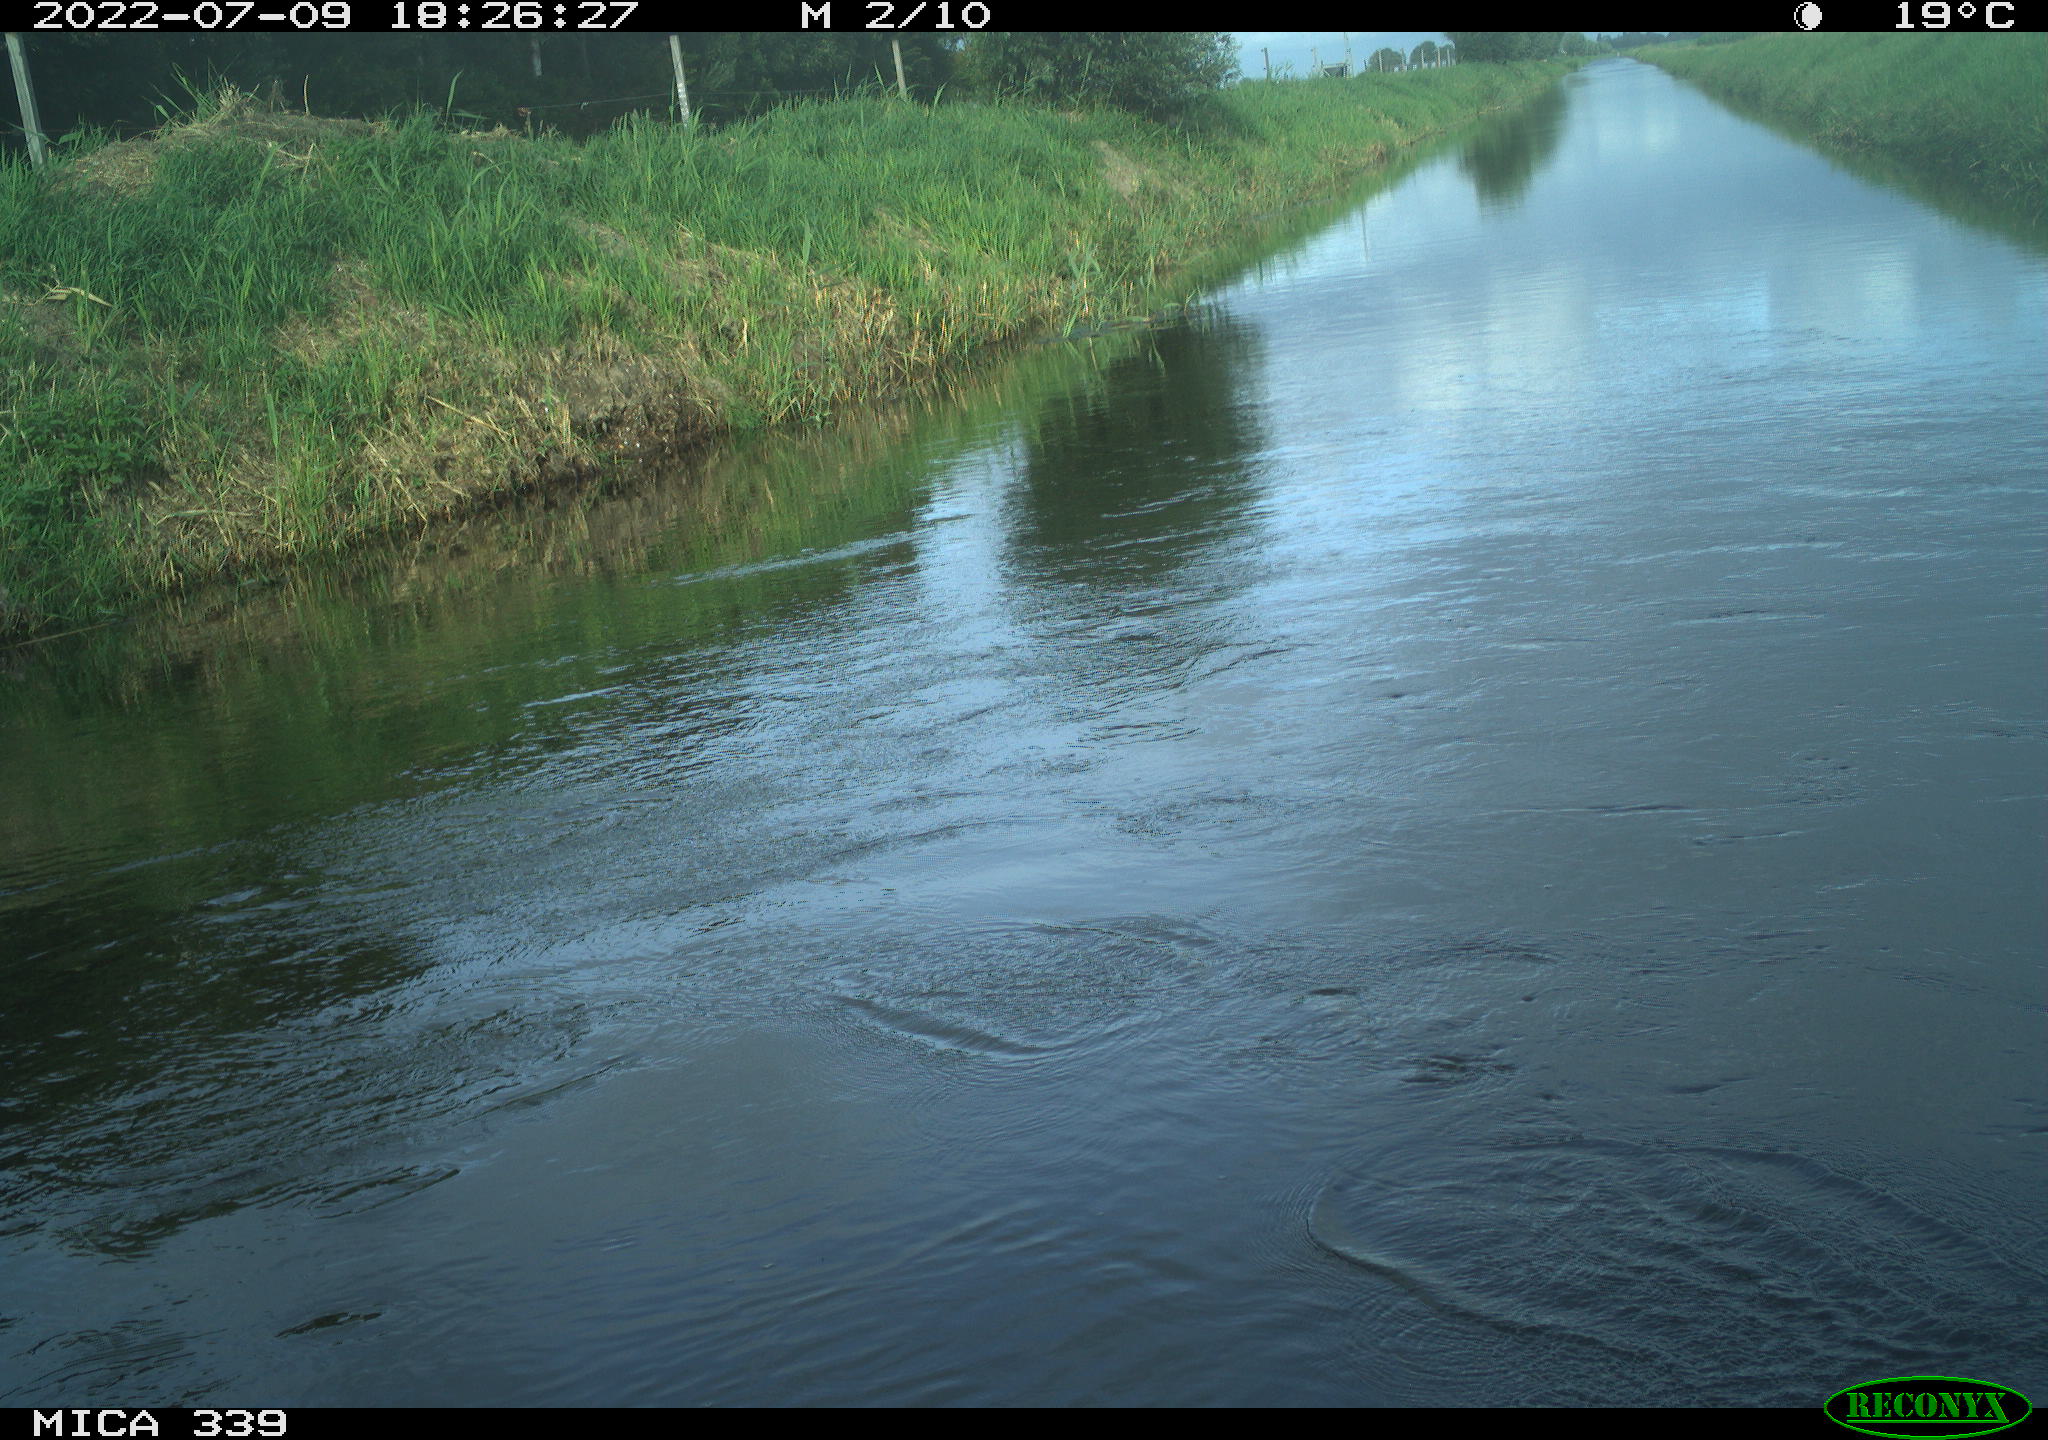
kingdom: Animalia
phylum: Chordata
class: Aves
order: Pelecaniformes
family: Ardeidae
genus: Ardea
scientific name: Ardea cinerea
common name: Grey heron
